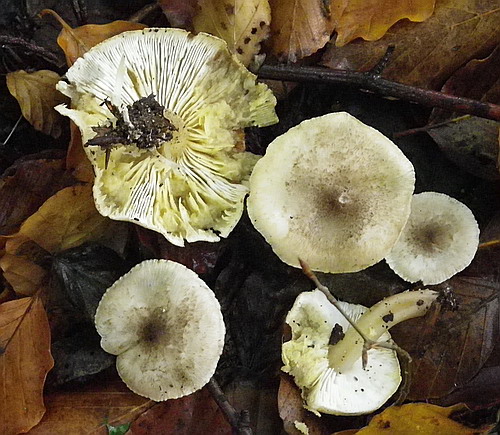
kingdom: Fungi
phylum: Basidiomycota
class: Agaricomycetes
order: Agaricales
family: Tricholomataceae
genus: Tricholoma
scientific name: Tricholoma scalpturatum
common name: gulplettet ridderhat
